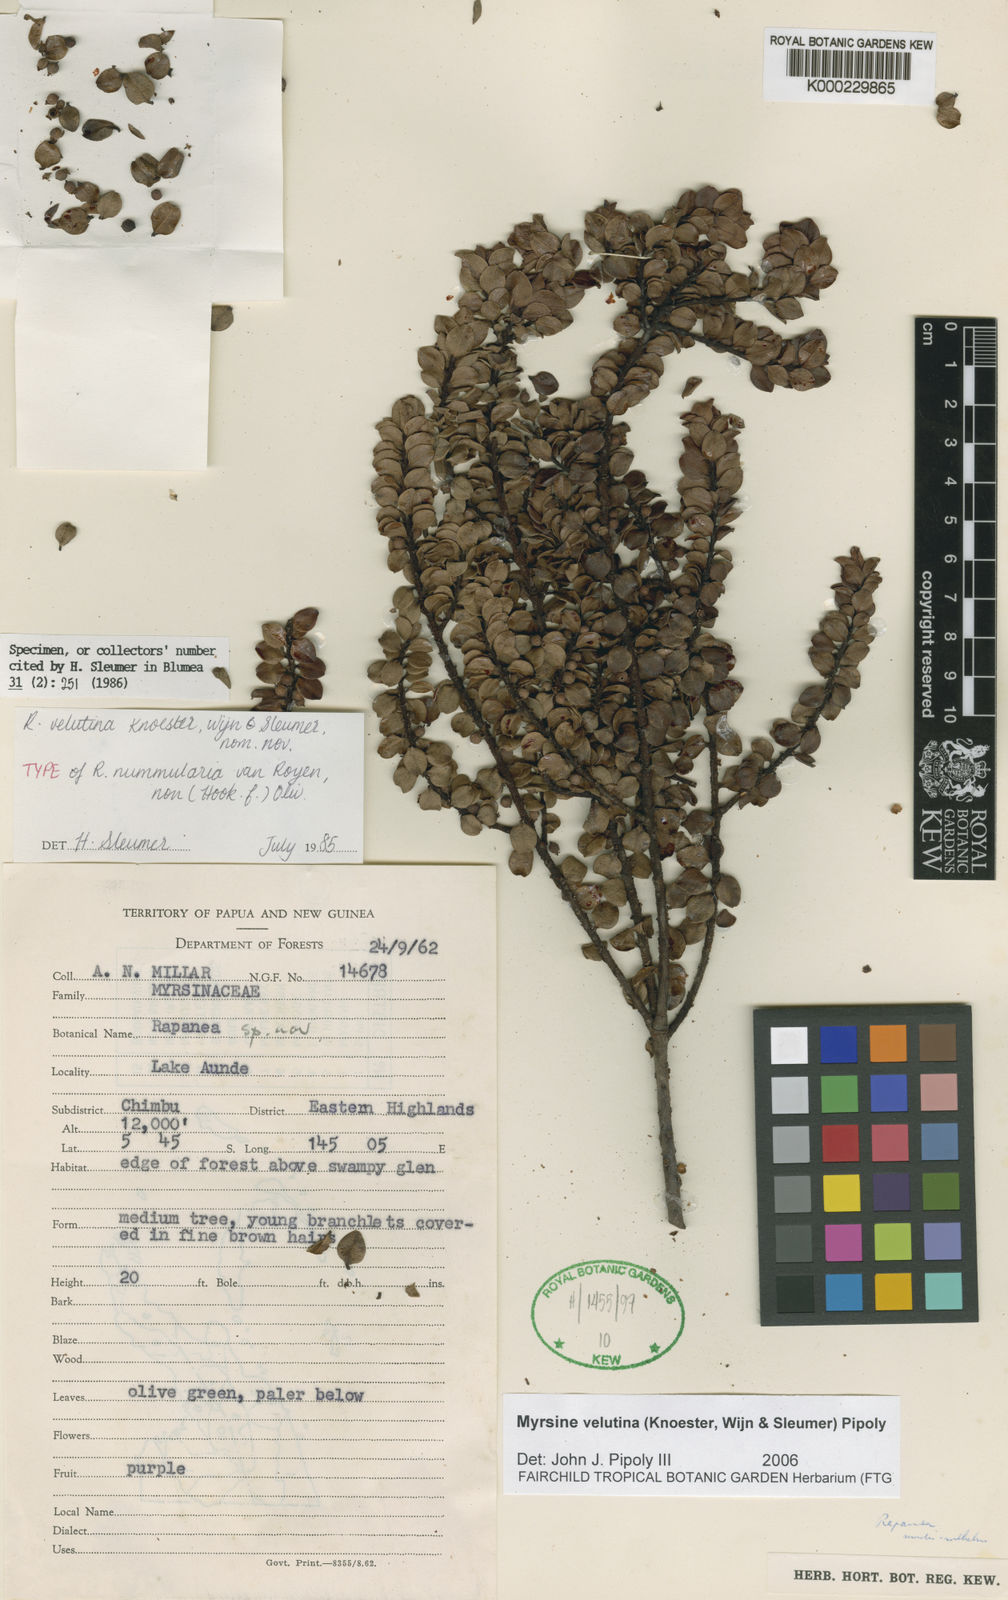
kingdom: Plantae
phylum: Tracheophyta
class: Magnoliopsida
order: Ericales
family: Primulaceae
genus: Myrsine
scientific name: Myrsine
